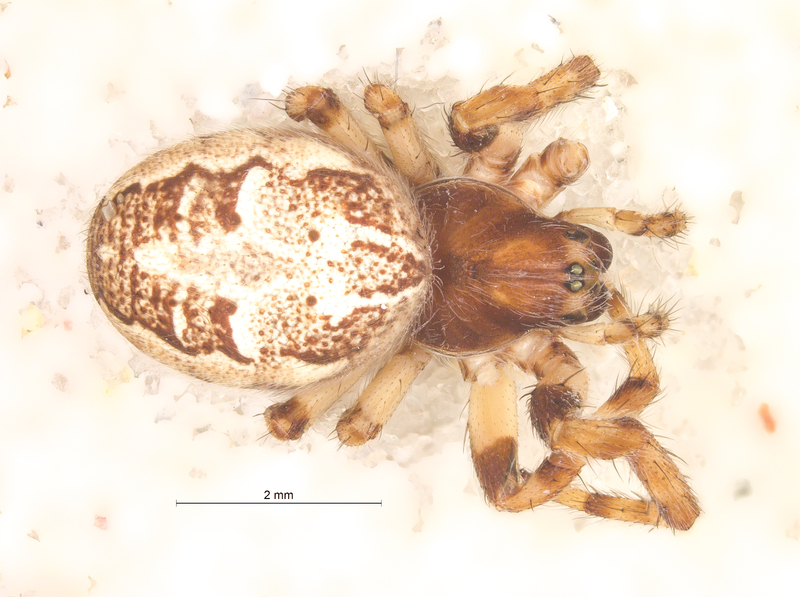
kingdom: Animalia
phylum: Arthropoda
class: Arachnida
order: Araneae
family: Araneidae
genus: Larinioides
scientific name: Larinioides cornutus
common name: Furrow orbweaver
